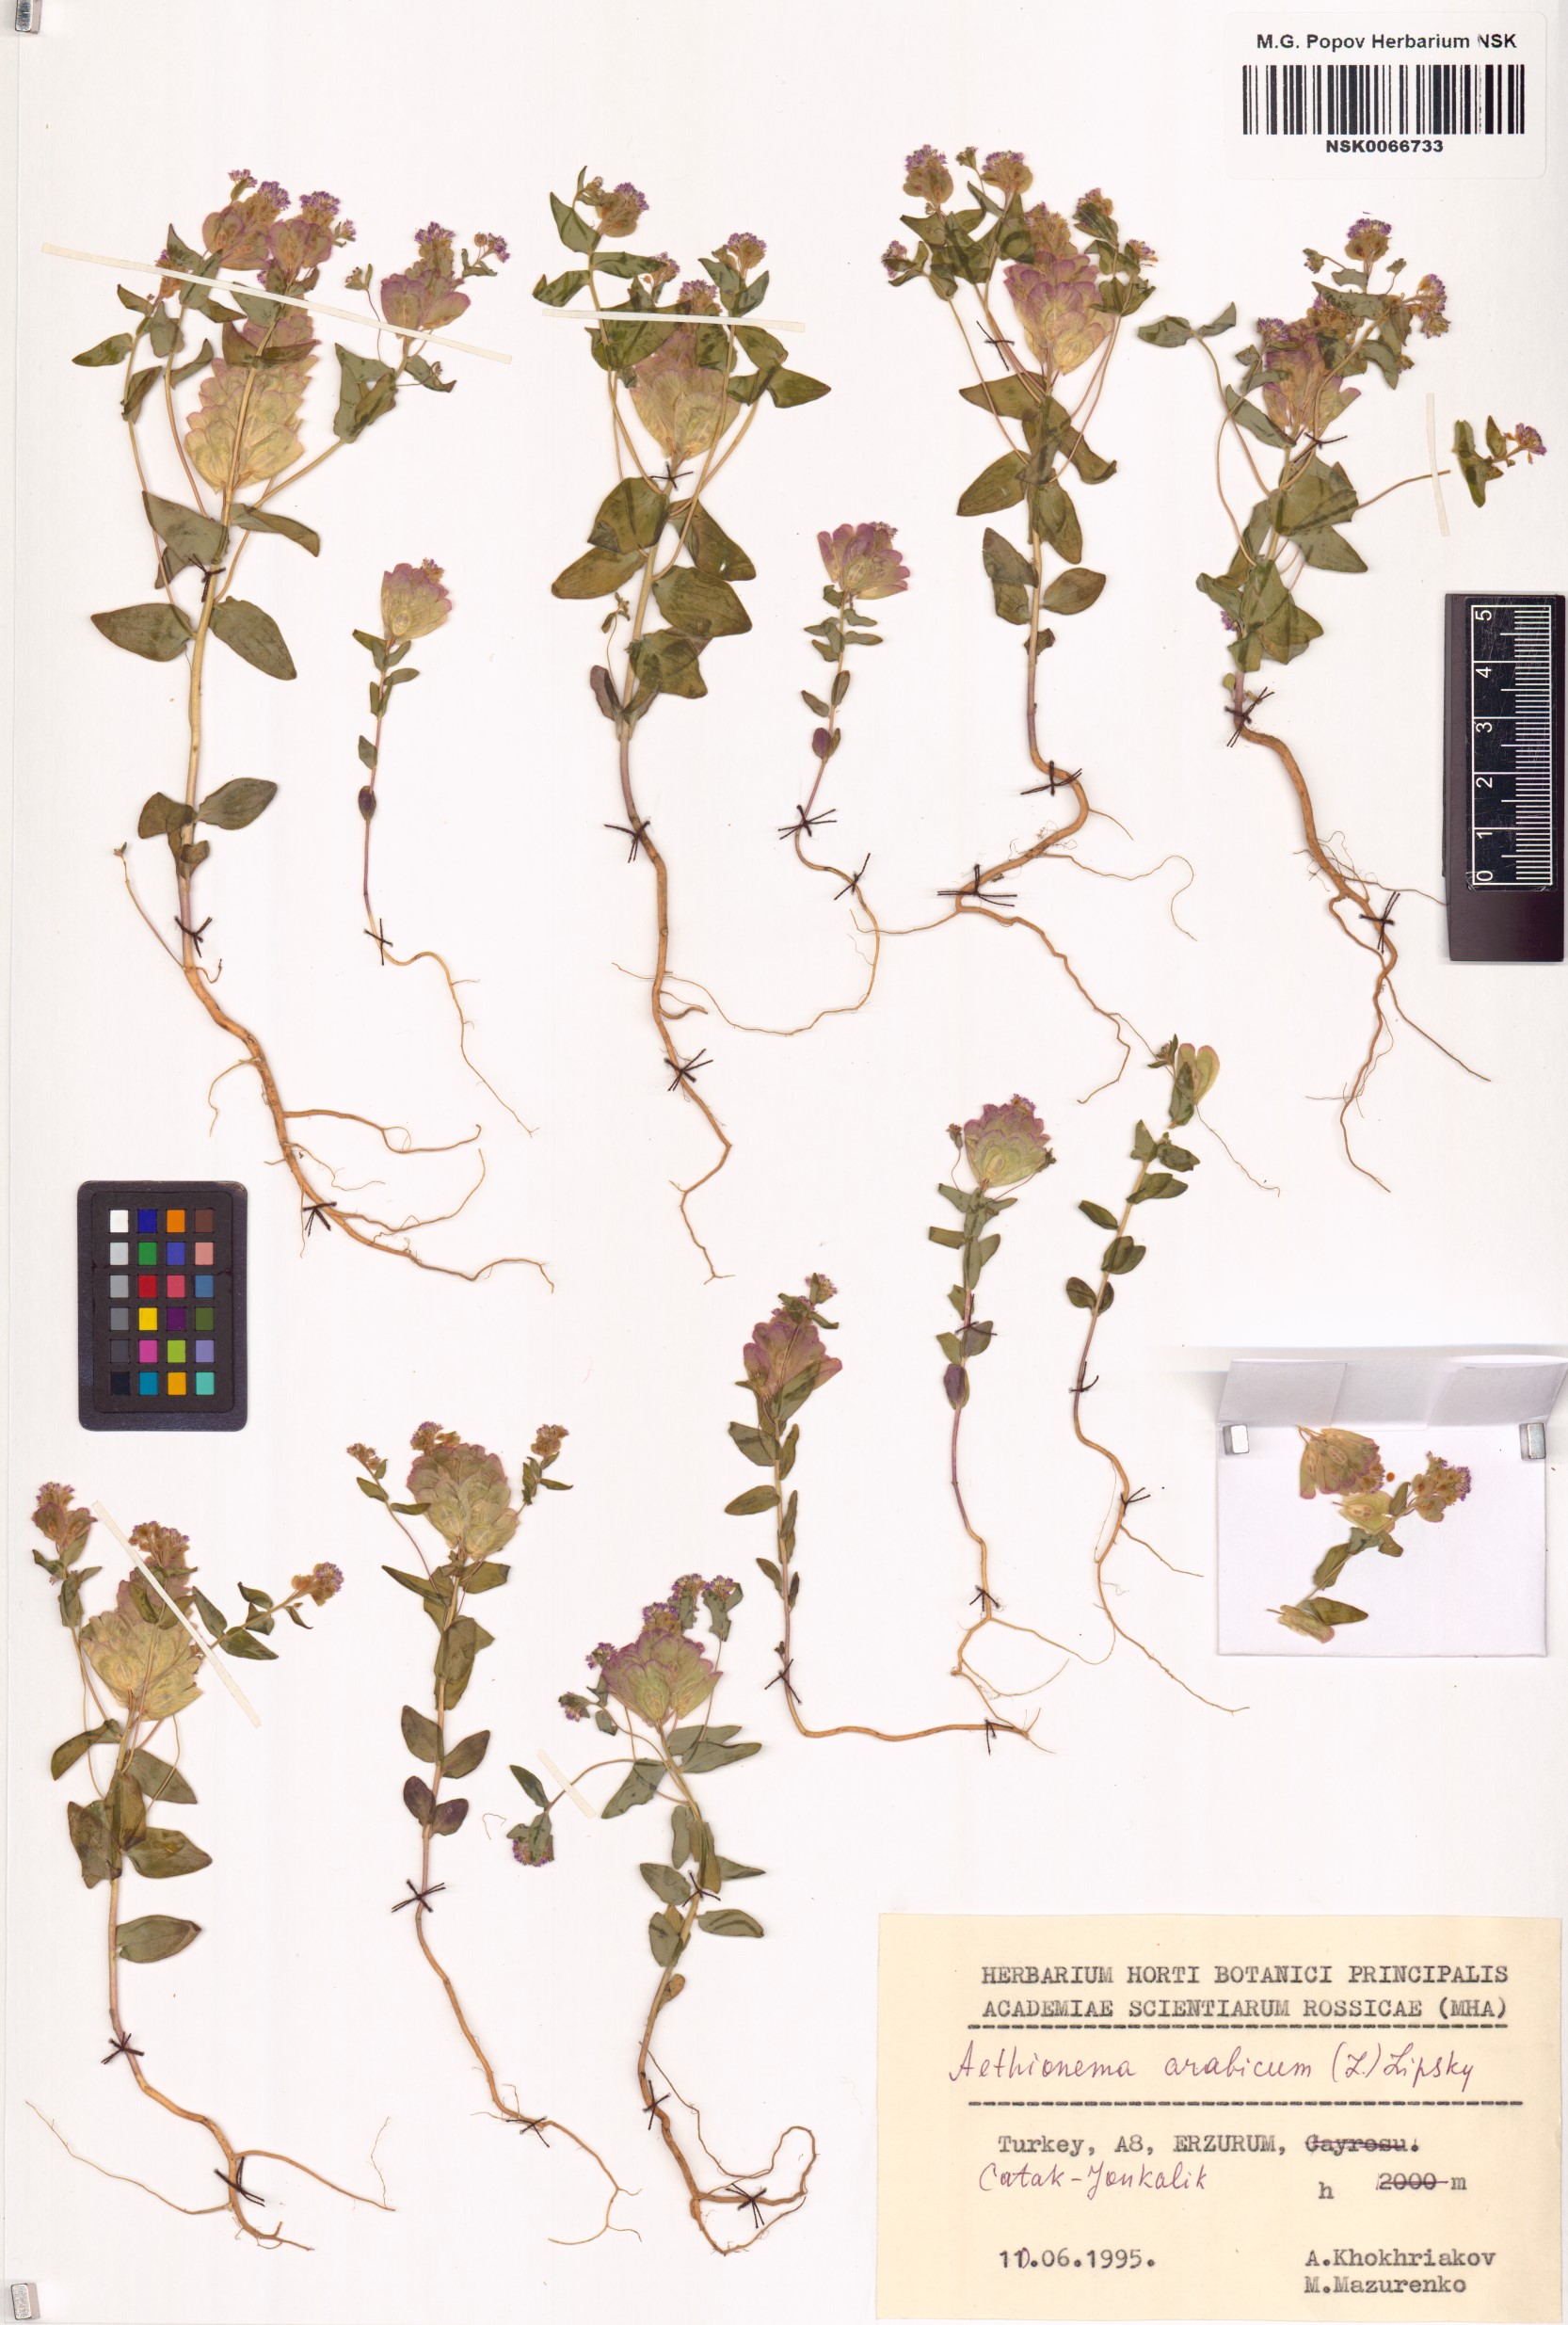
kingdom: Plantae
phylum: Tracheophyta
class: Magnoliopsida
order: Brassicales
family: Brassicaceae
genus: Aethionema
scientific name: Aethionema arabicum
